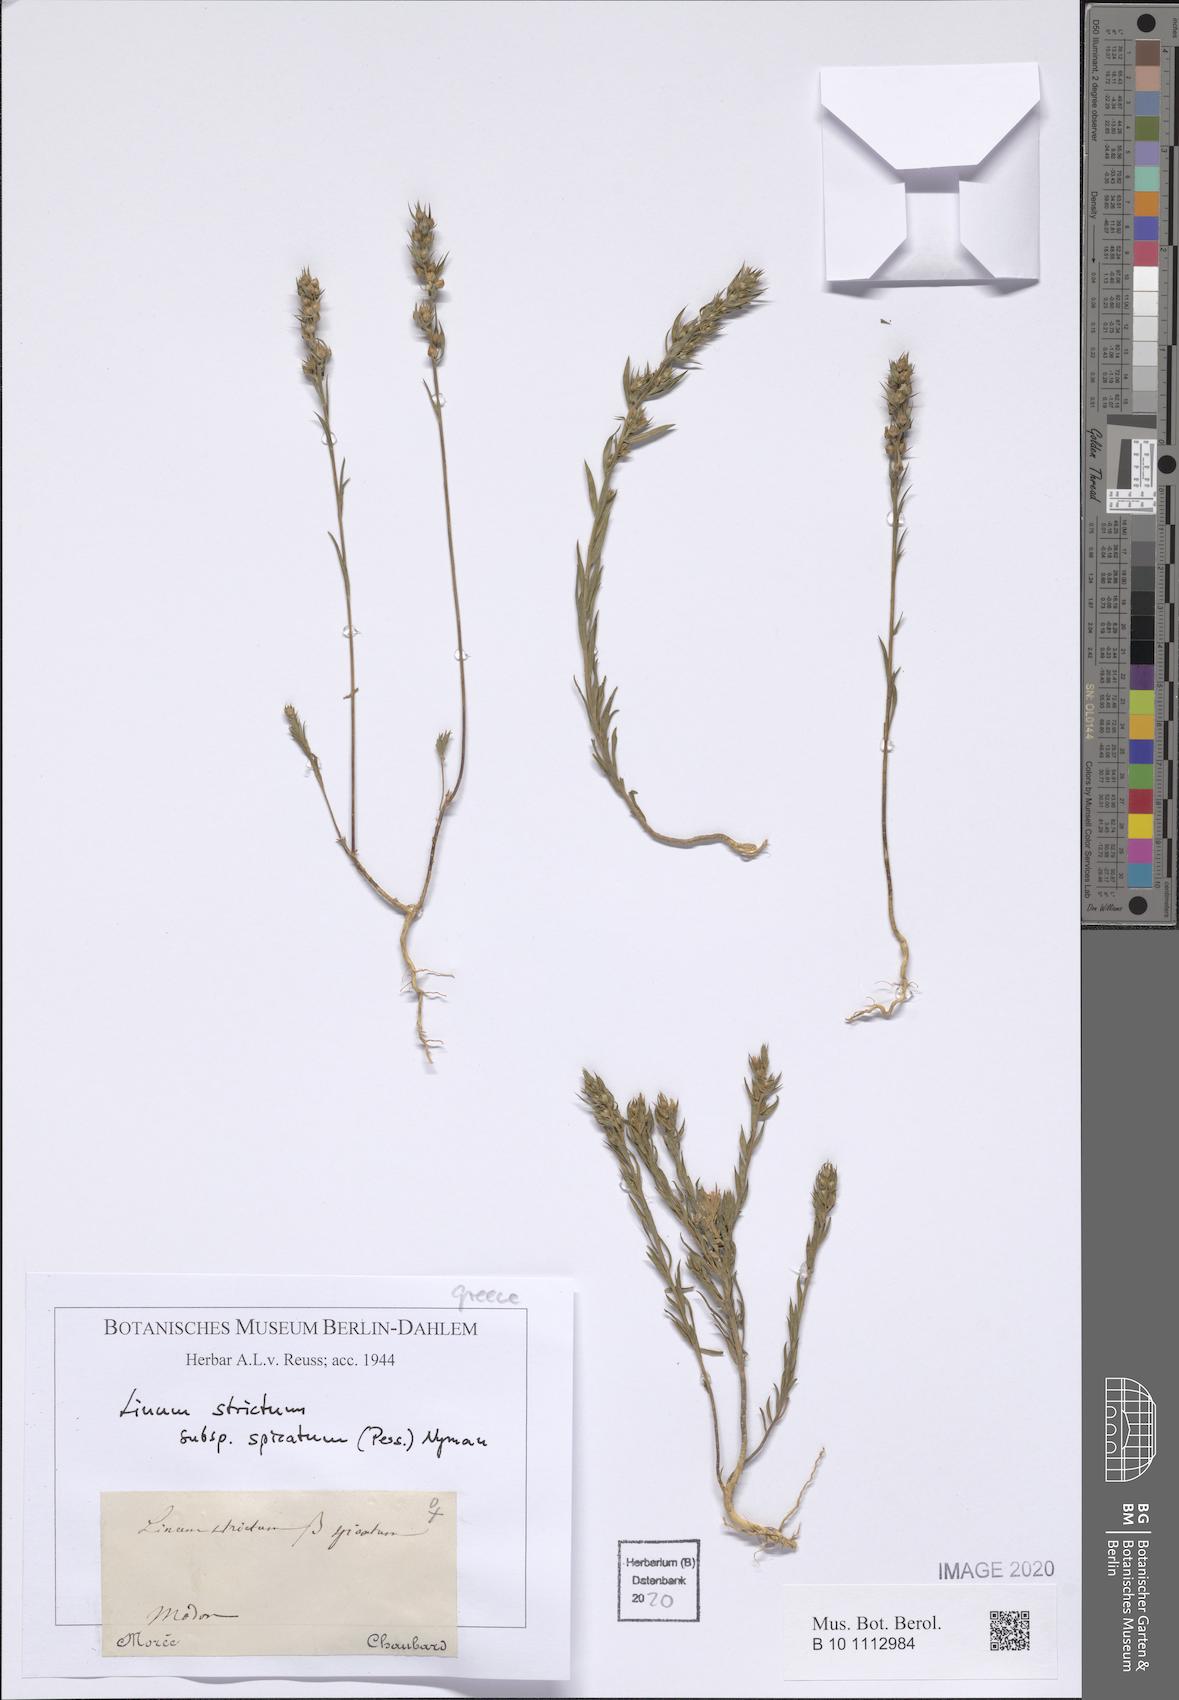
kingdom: Plantae
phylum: Tracheophyta
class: Magnoliopsida
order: Malpighiales
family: Linaceae
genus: Linum
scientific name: Linum strictum
